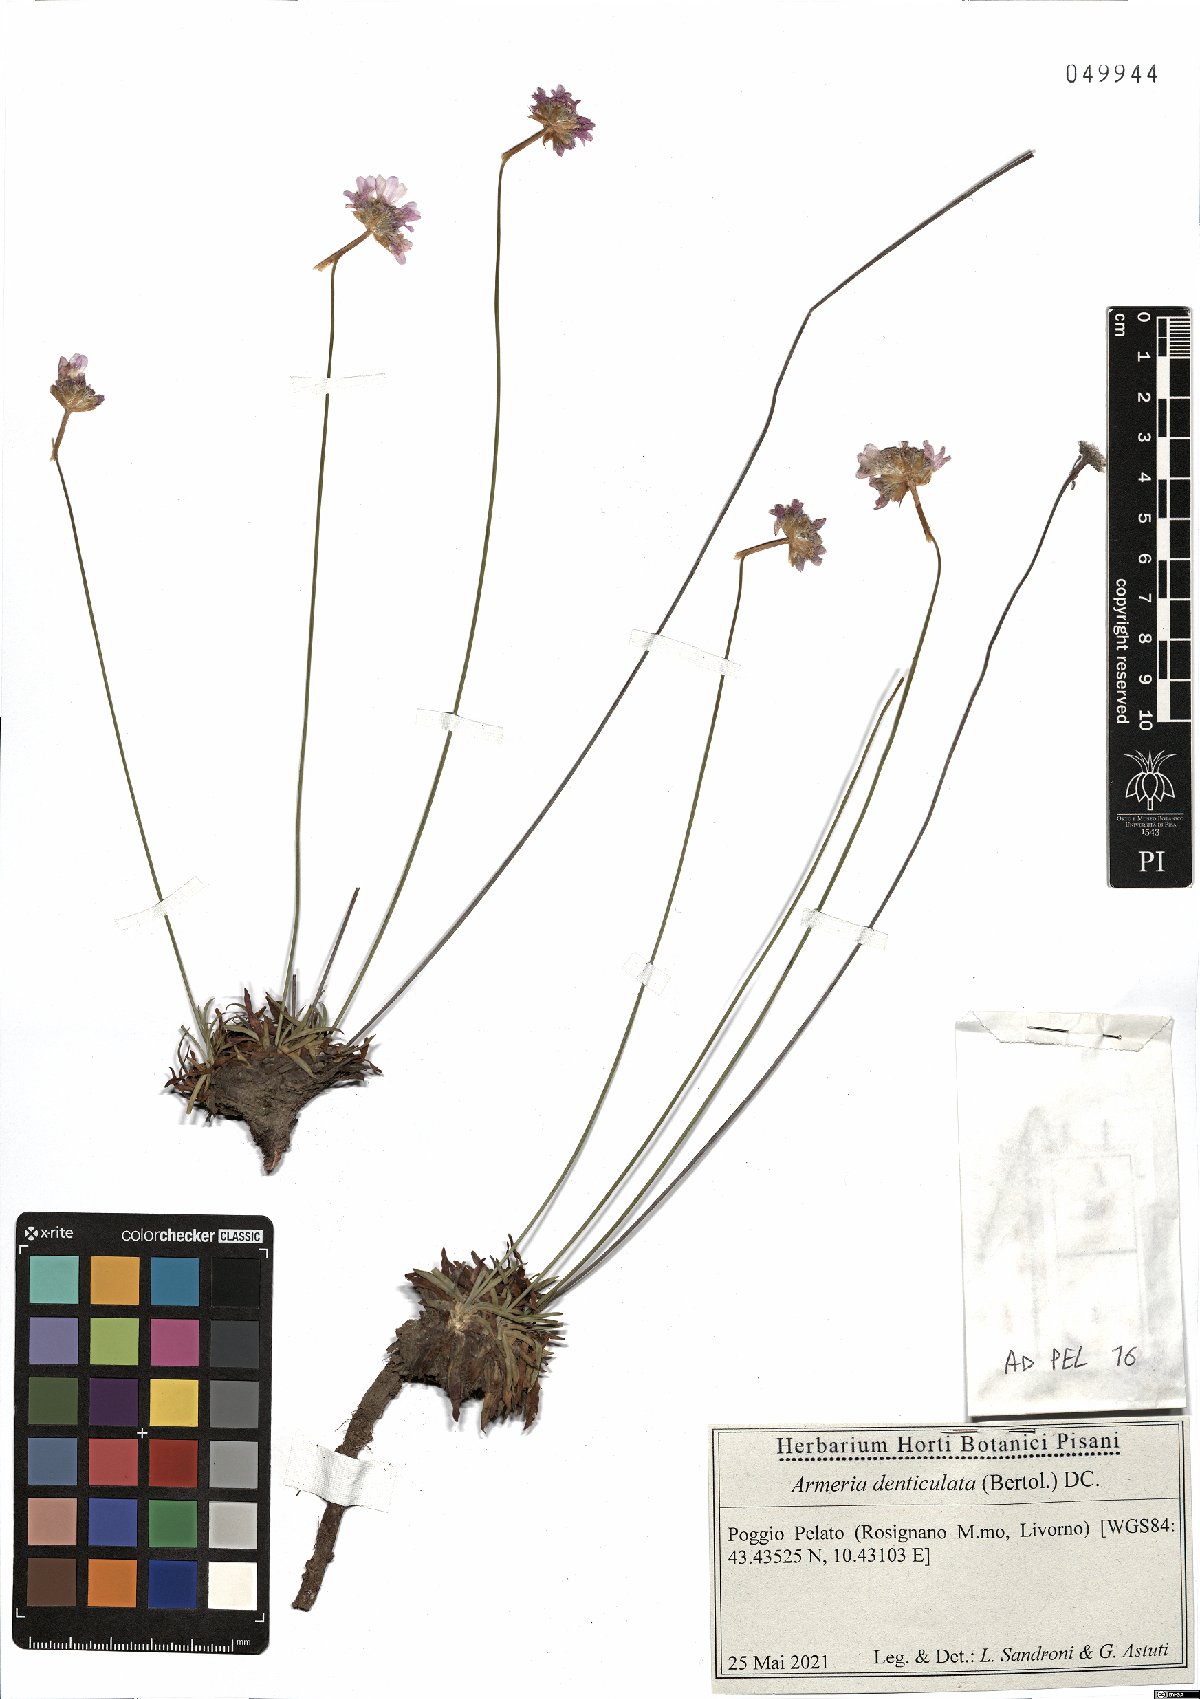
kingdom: Plantae
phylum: Tracheophyta
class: Magnoliopsida
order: Caryophyllales
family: Plumbaginaceae
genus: Armeria
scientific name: Armeria denticulata
